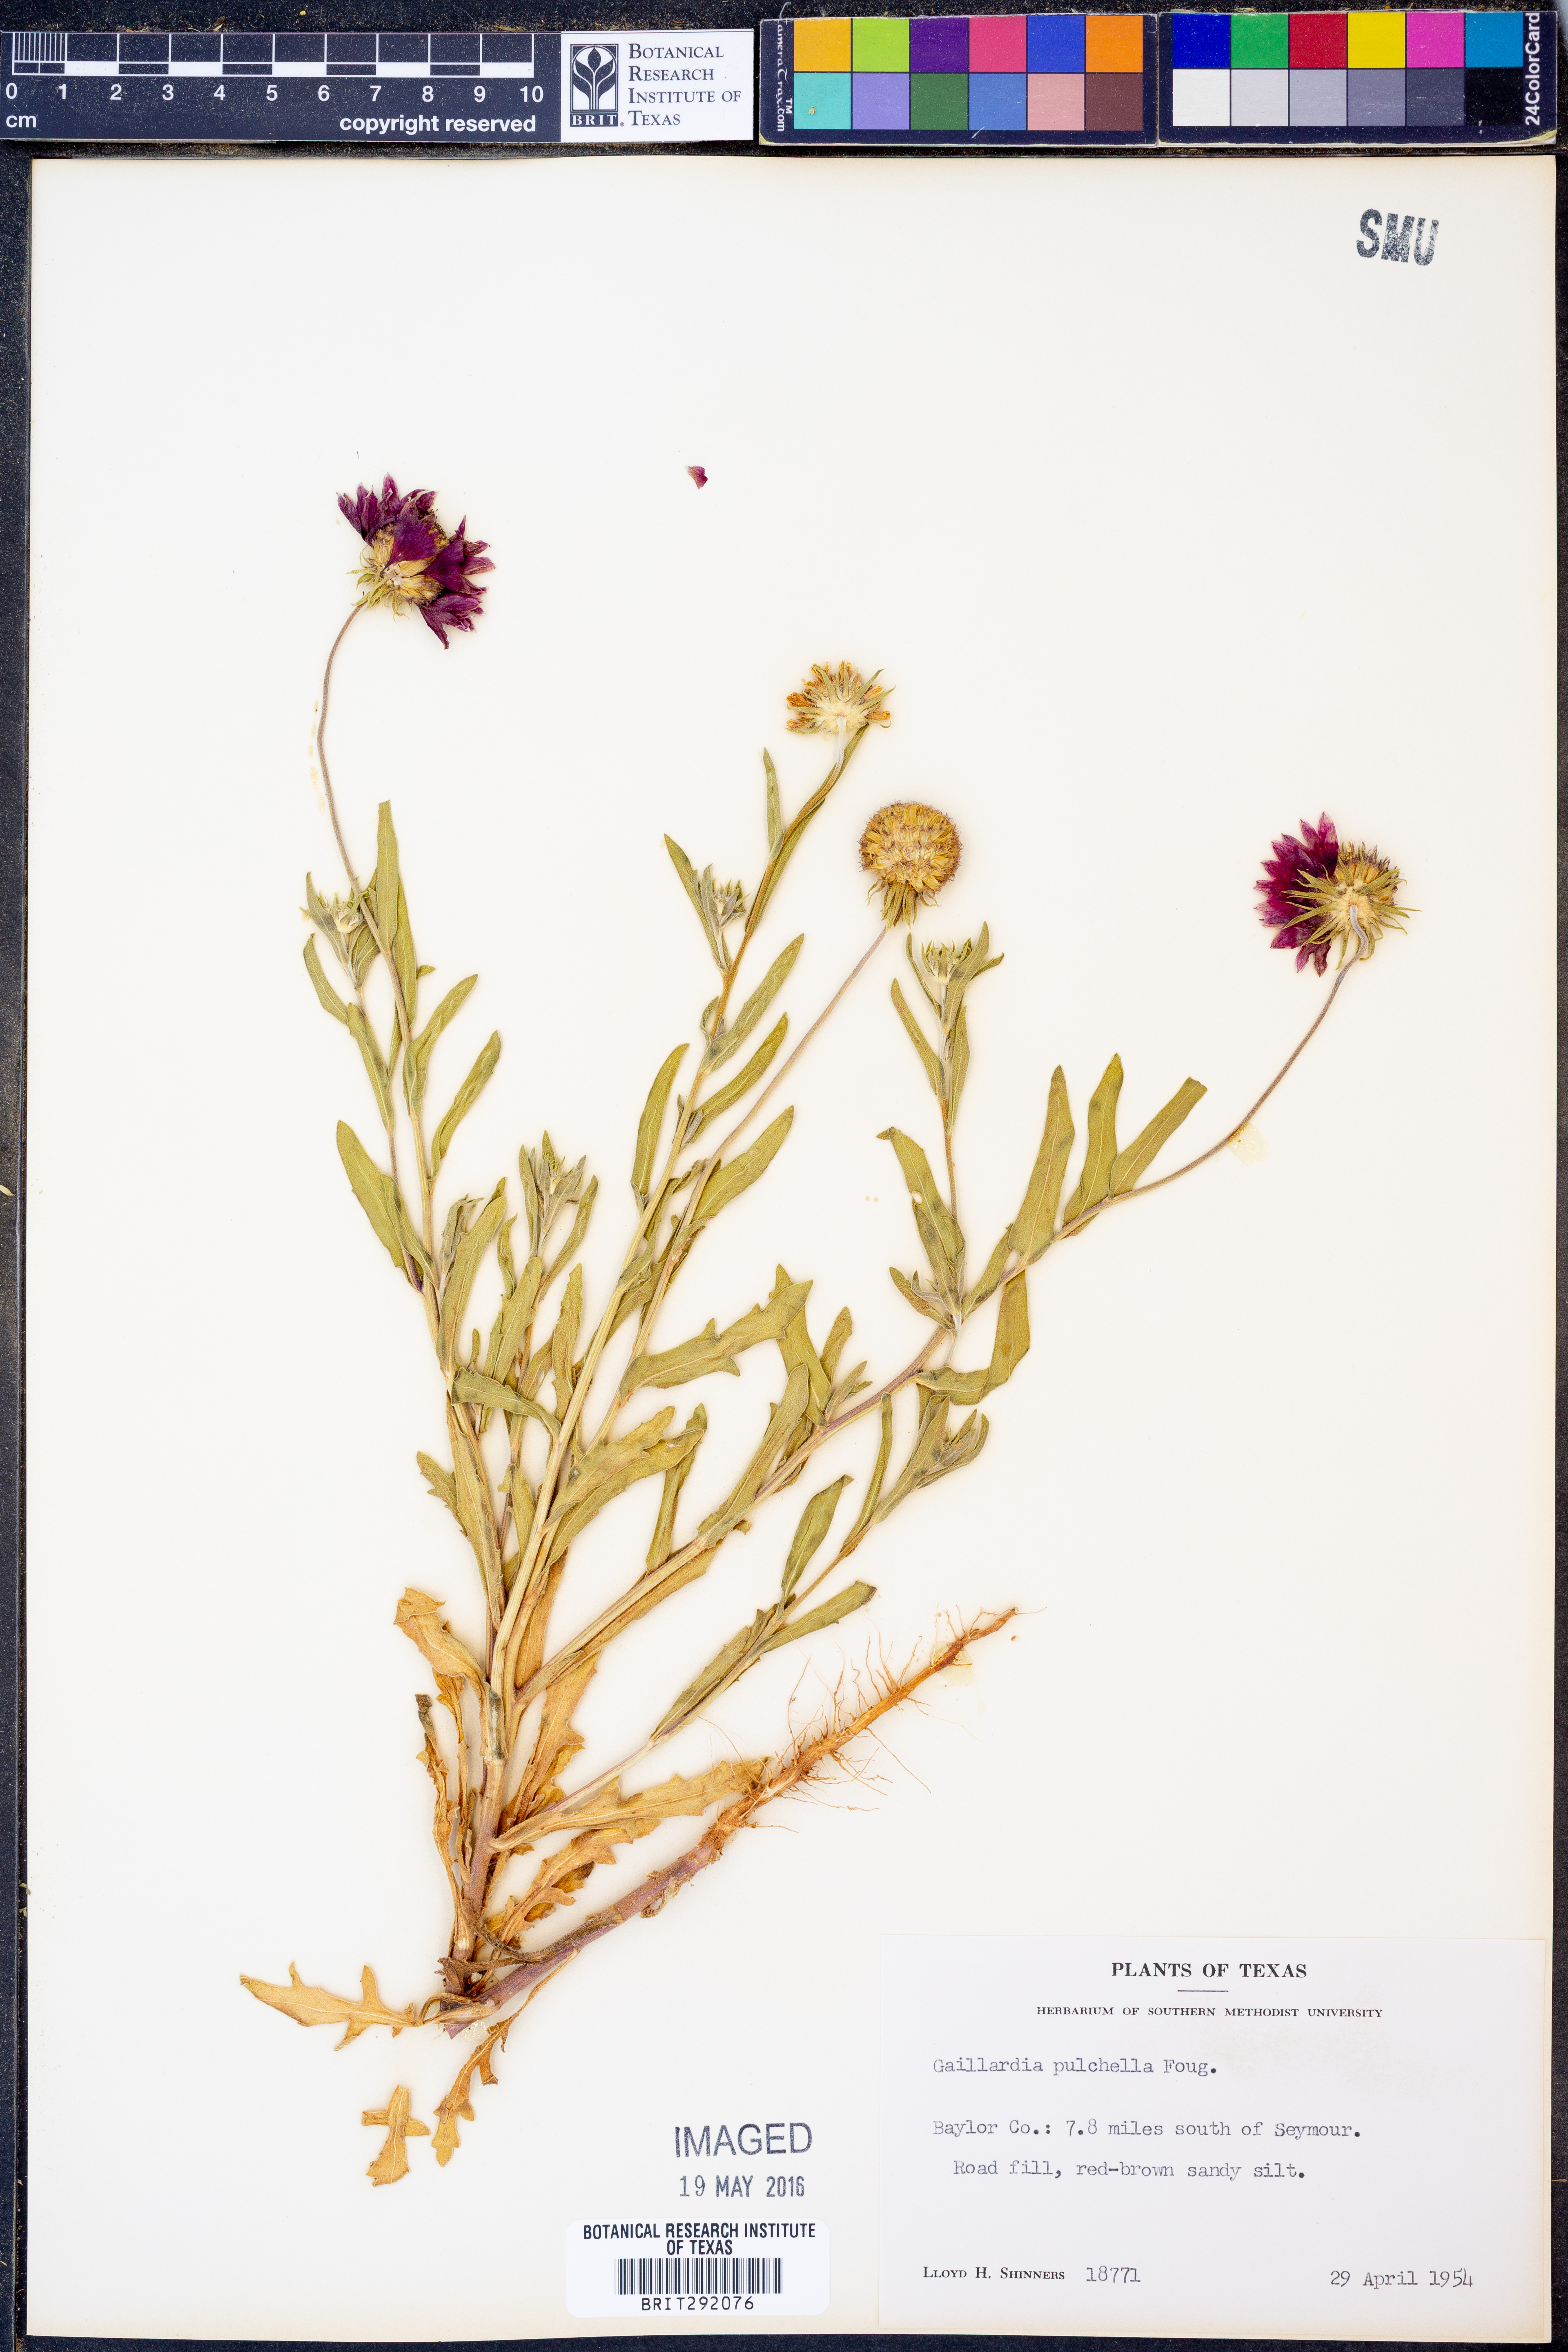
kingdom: Plantae
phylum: Tracheophyta
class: Magnoliopsida
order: Asterales
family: Asteraceae
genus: Gaillardia
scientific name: Gaillardia pulchella
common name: Firewheel
